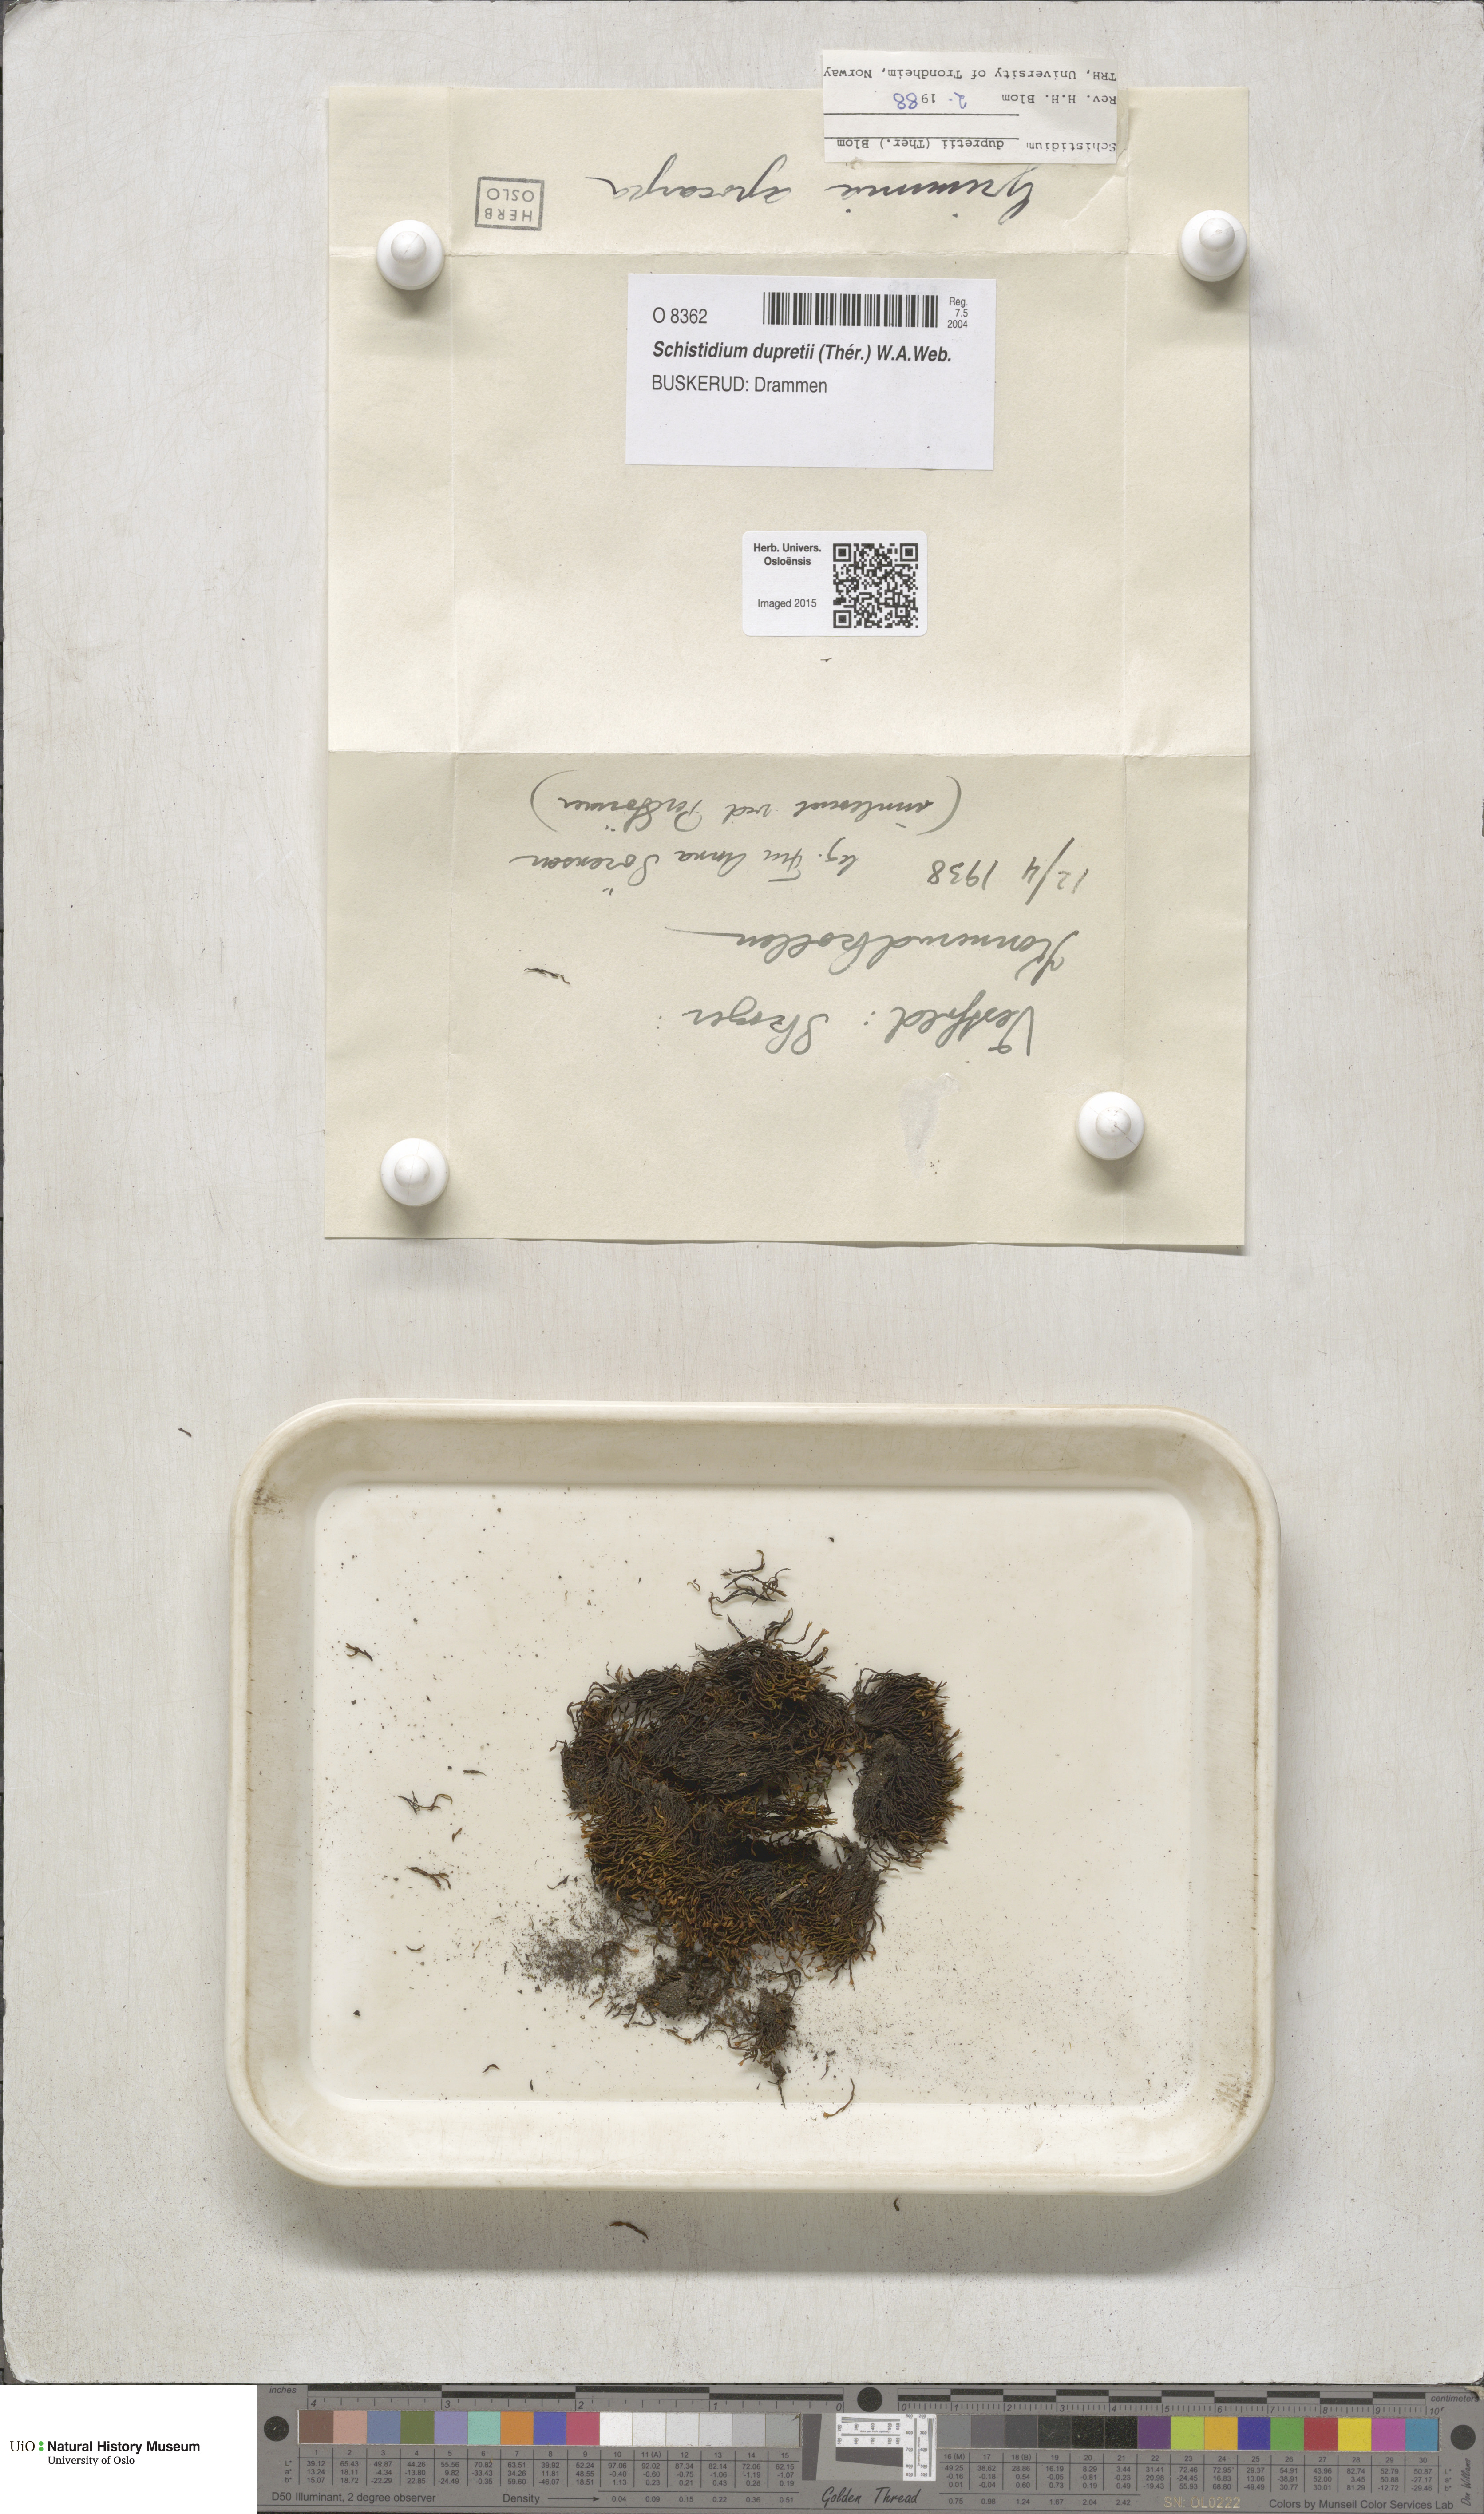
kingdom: Plantae
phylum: Bryophyta
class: Bryopsida
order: Grimmiales
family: Grimmiaceae
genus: Schistidium
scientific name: Schistidium dupretii
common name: Dupret's bloom moss
